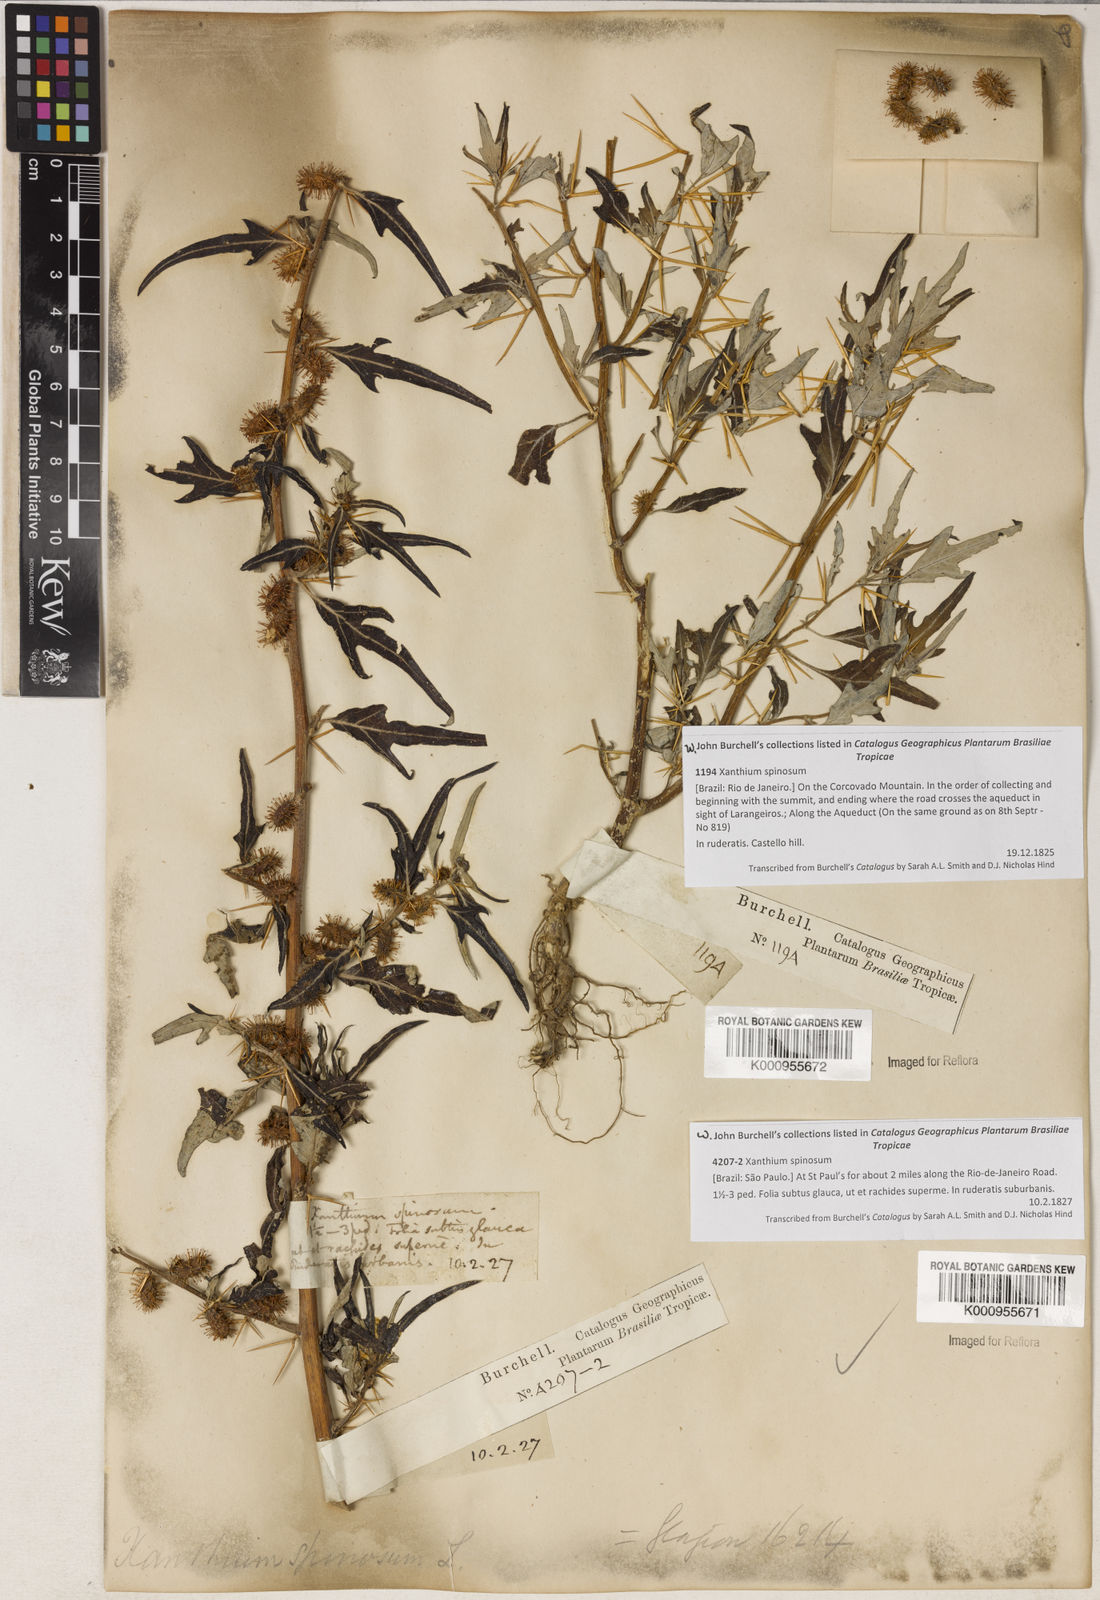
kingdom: Plantae
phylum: Tracheophyta
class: Magnoliopsida
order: Asterales
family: Asteraceae
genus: Xanthium
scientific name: Xanthium spinosum
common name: Spiny cocklebur
